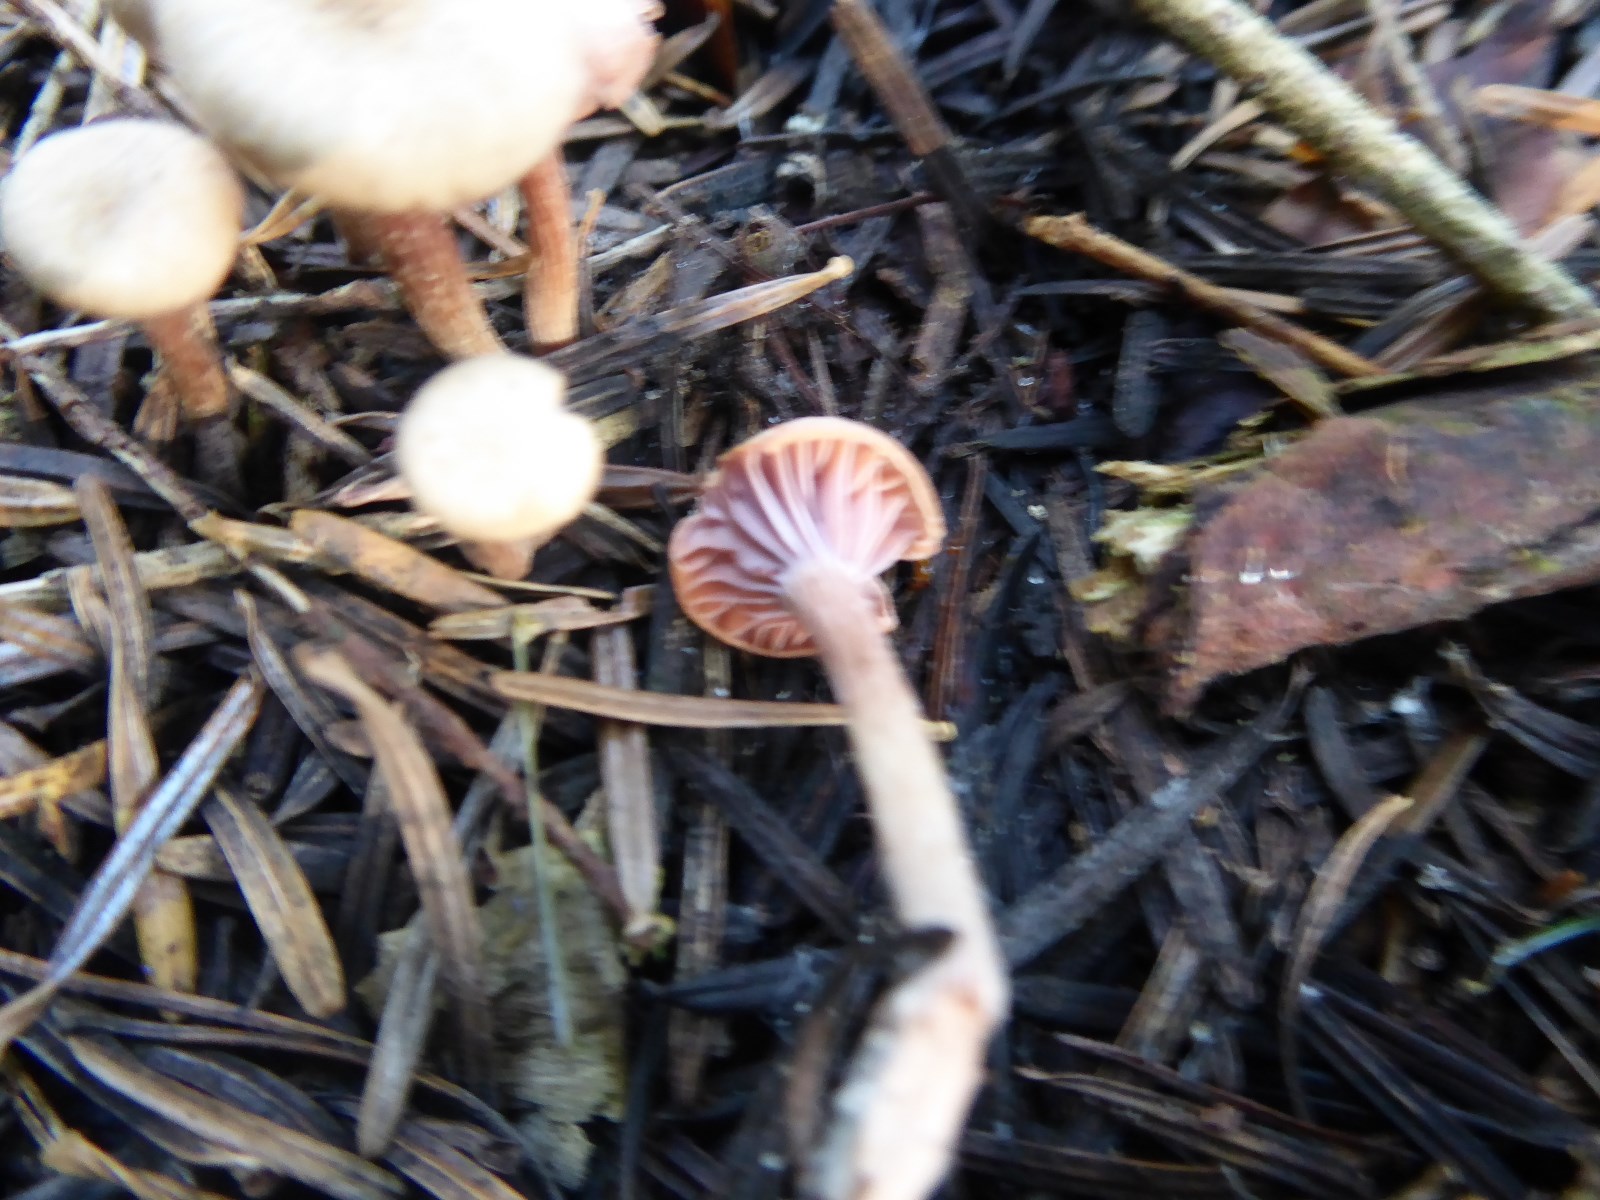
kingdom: Fungi
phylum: Basidiomycota
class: Agaricomycetes
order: Agaricales
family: Hydnangiaceae
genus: Laccaria
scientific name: Laccaria
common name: ametysthat
